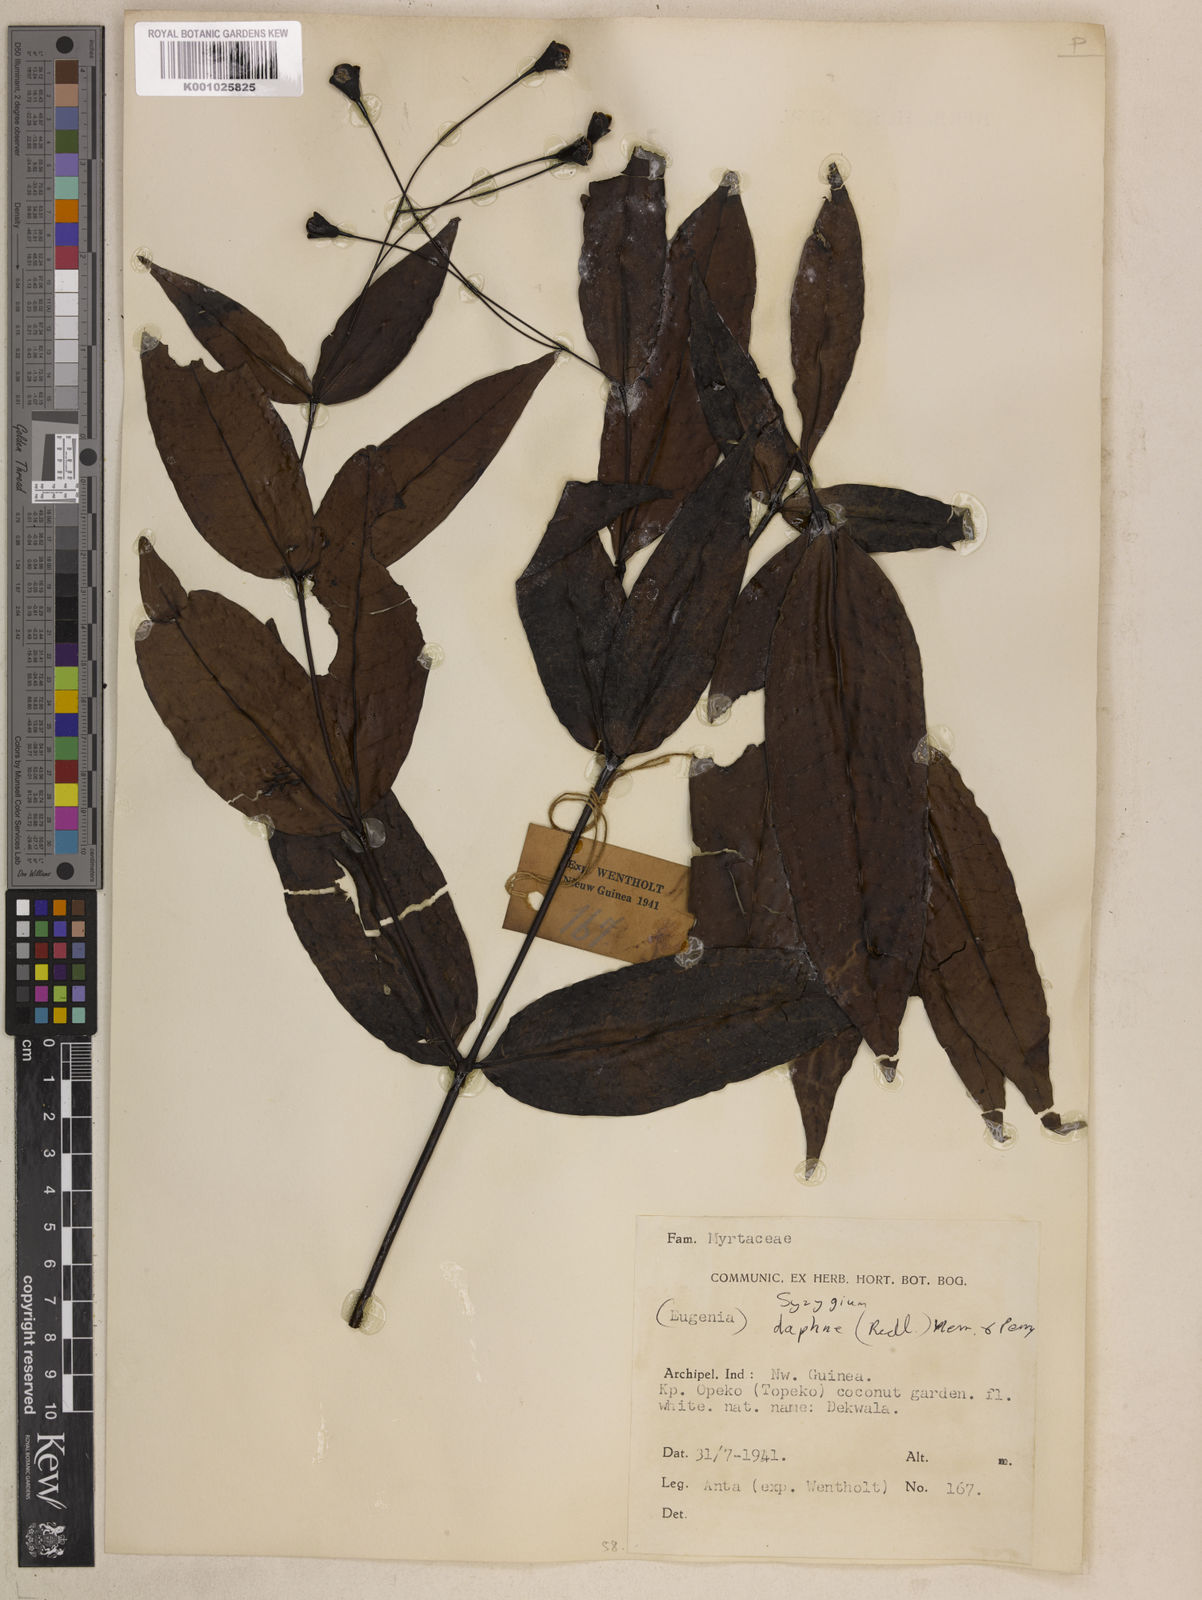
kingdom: Plantae
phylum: Tracheophyta
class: Magnoliopsida
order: Myrtales
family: Myrtaceae
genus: Syzygium
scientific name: Syzygium daphne
